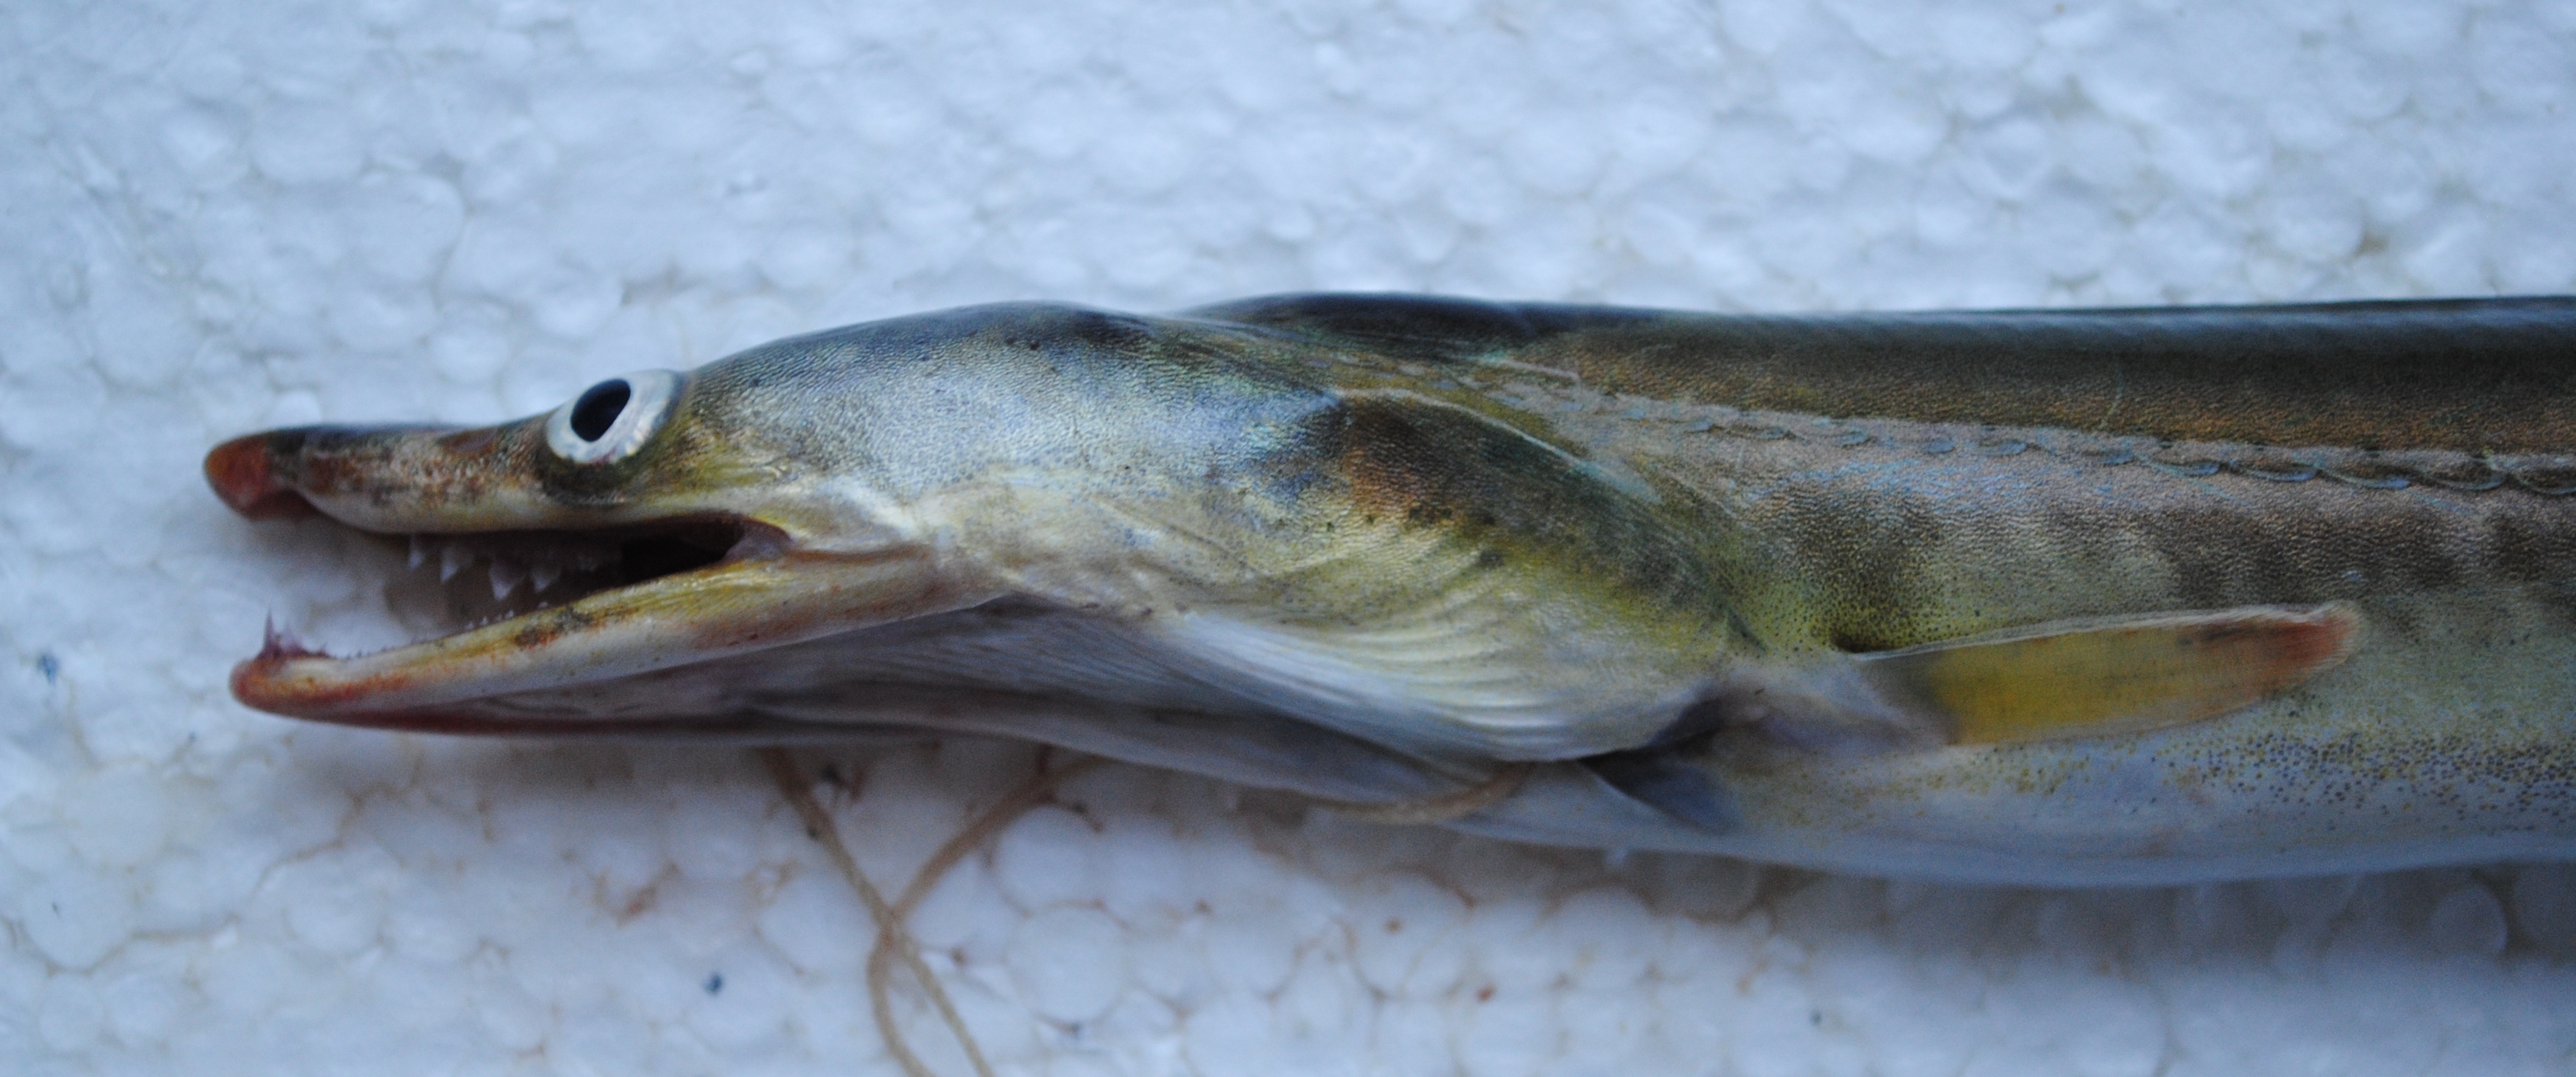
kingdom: Animalia
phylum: Chordata
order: Anguilliformes
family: Muraenesocidae
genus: Muraenesox
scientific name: Muraenesox bagio
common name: Common pike conger
